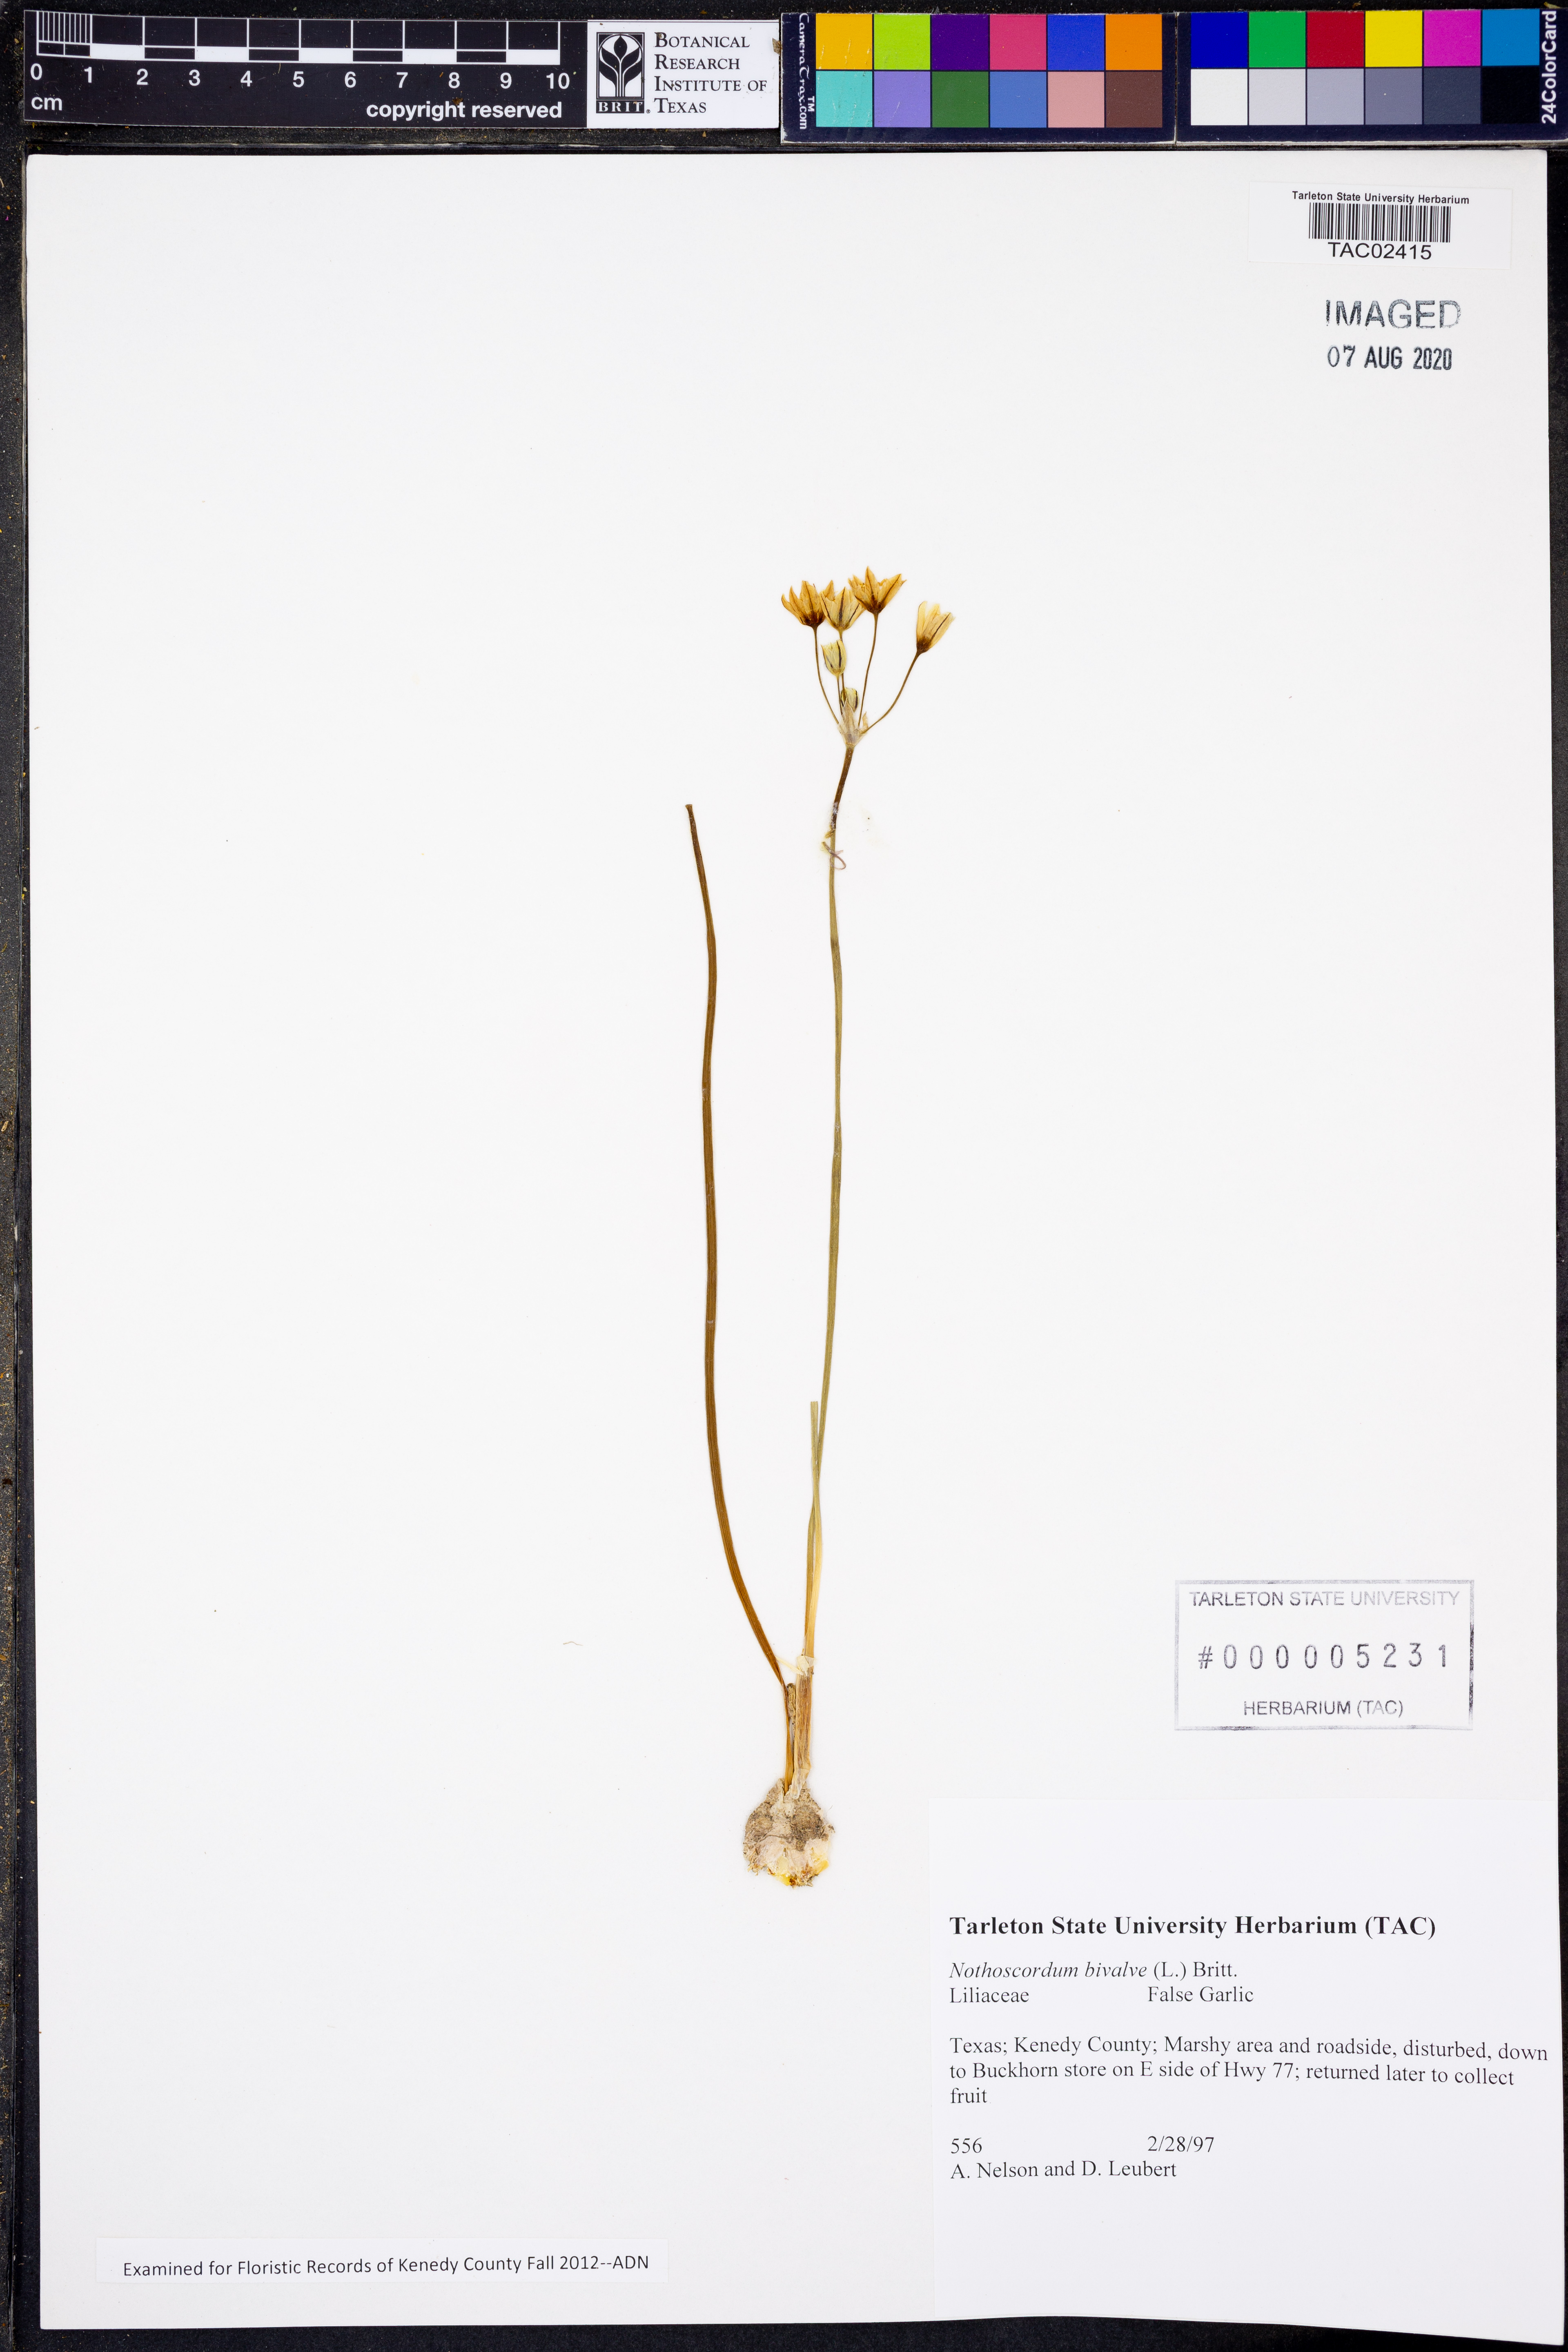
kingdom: Plantae
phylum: Tracheophyta
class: Liliopsida
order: Asparagales
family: Amaryllidaceae
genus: Nothoscordum
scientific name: Nothoscordum bivalve
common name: Crow-poison
